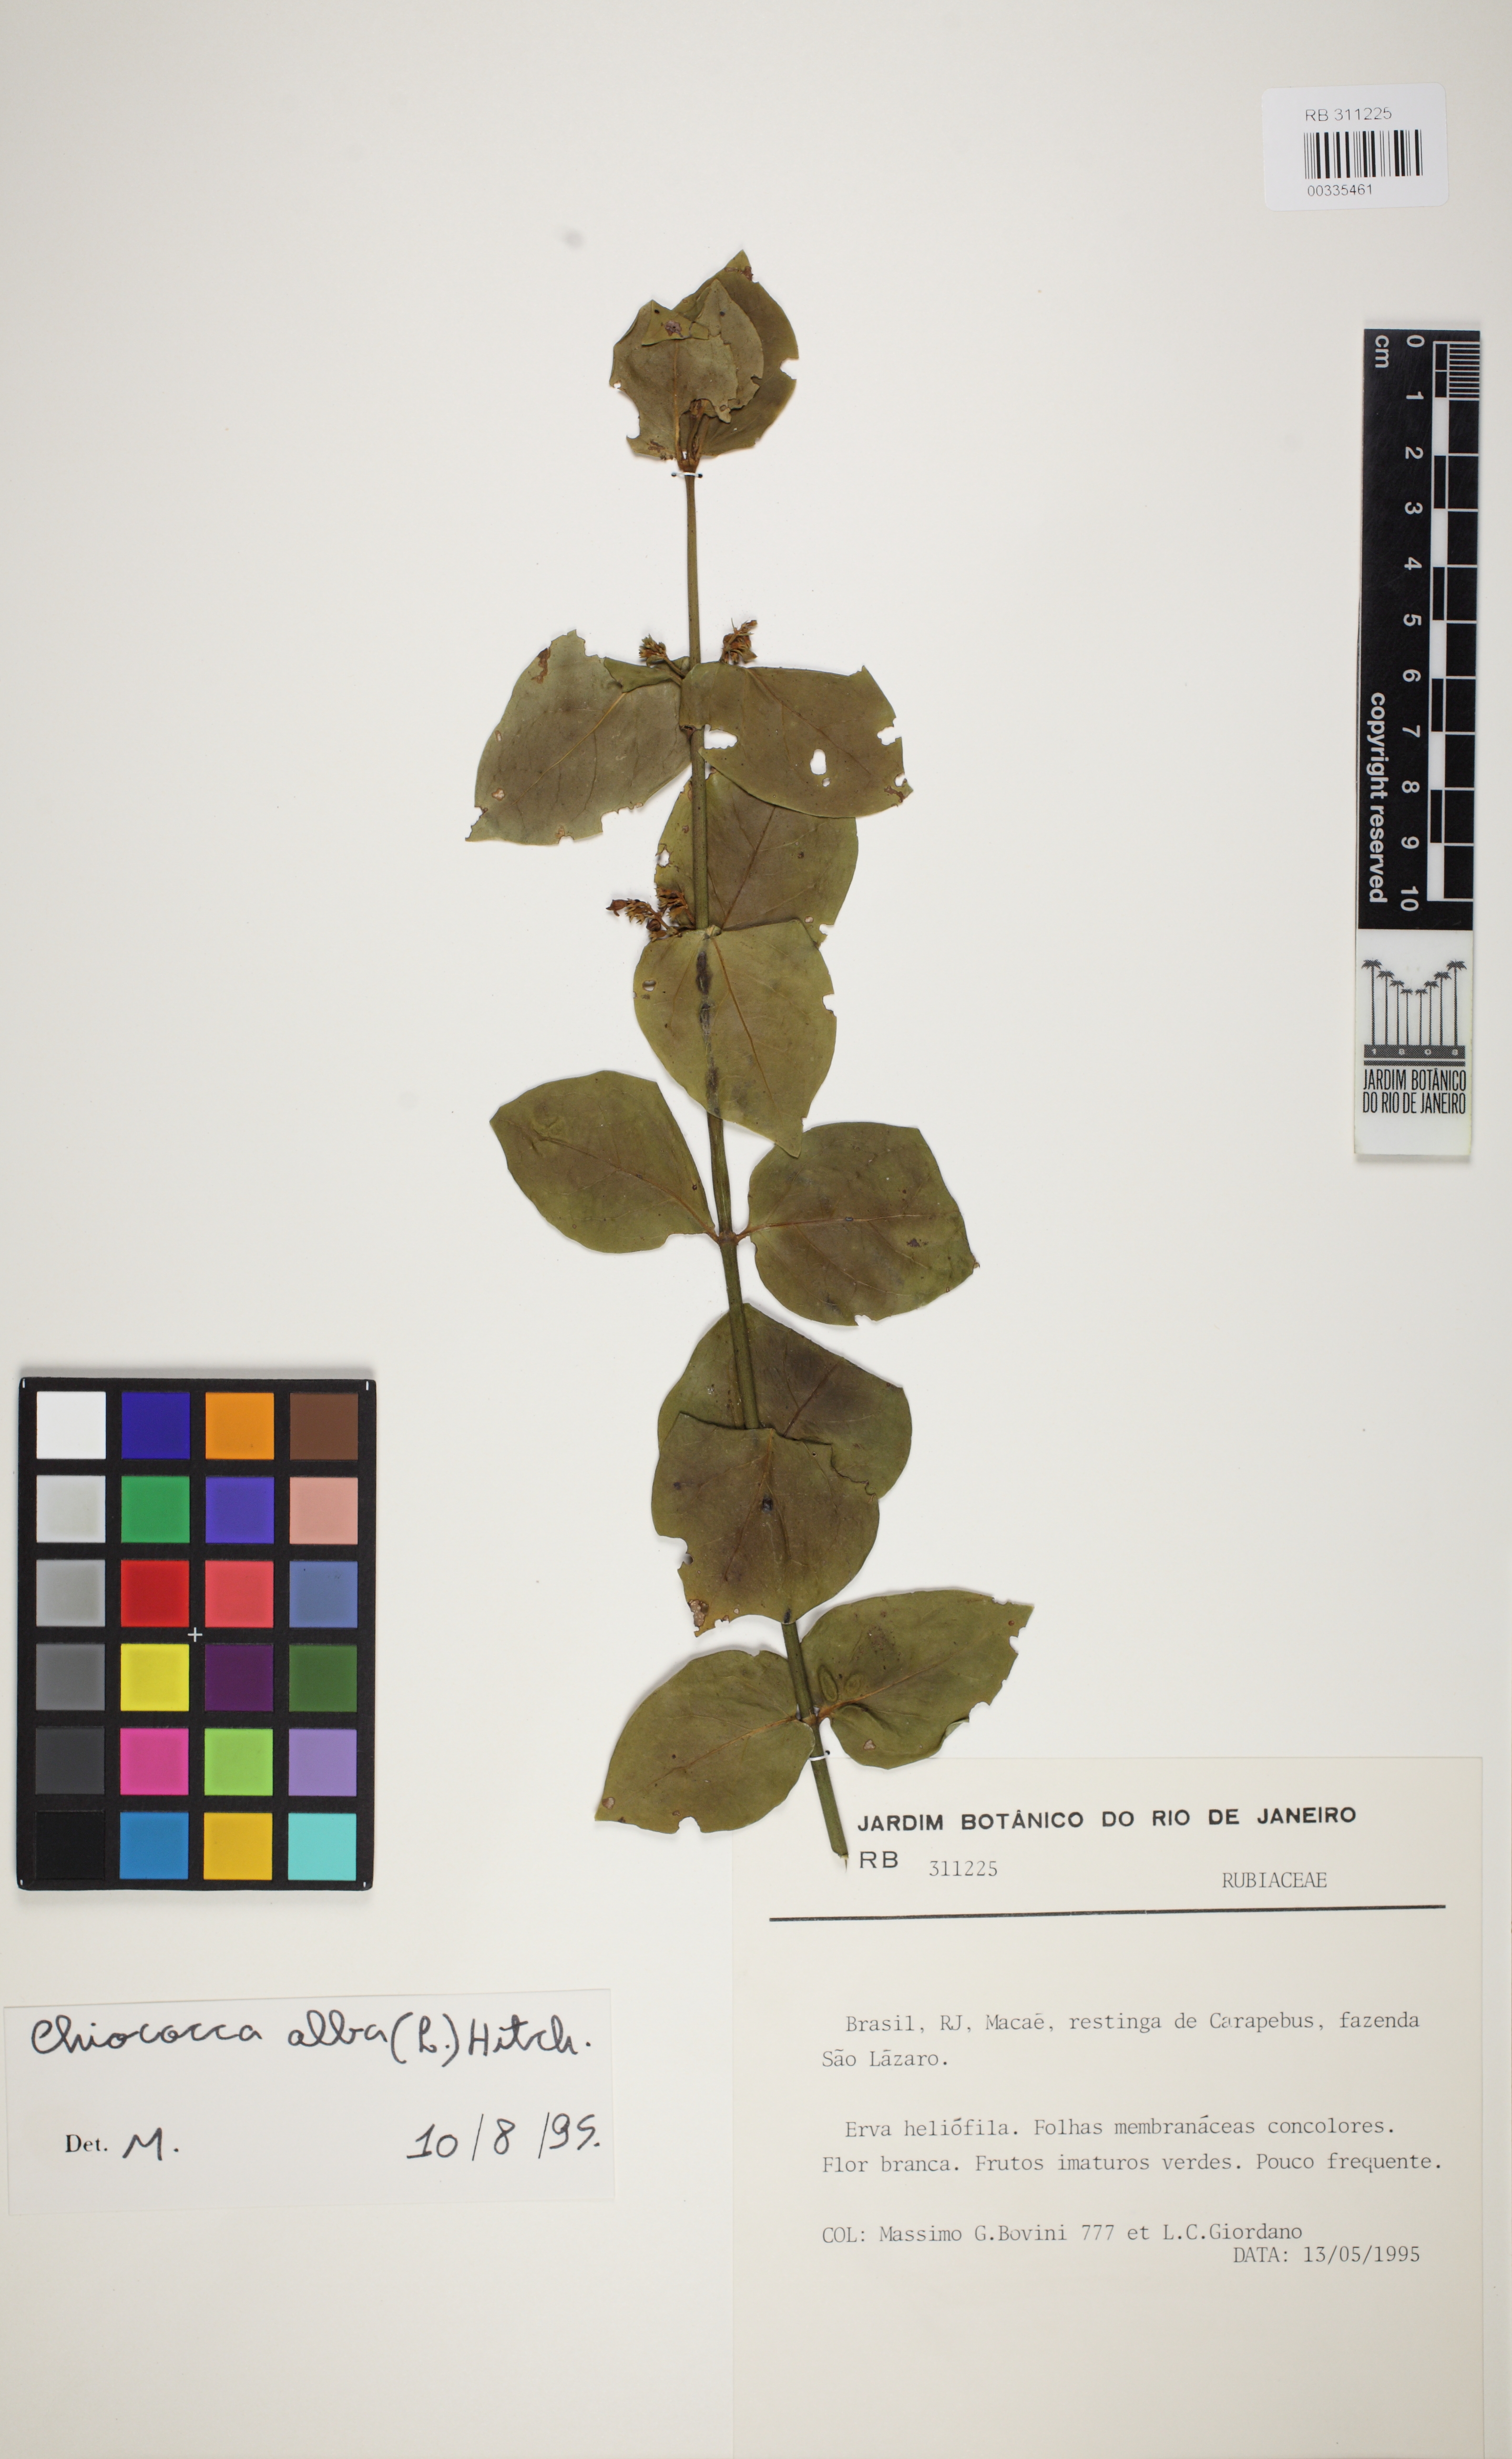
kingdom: Plantae
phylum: Tracheophyta
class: Magnoliopsida
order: Gentianales
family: Rubiaceae
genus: Chiococca
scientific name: Chiococca alba
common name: Snowberry
